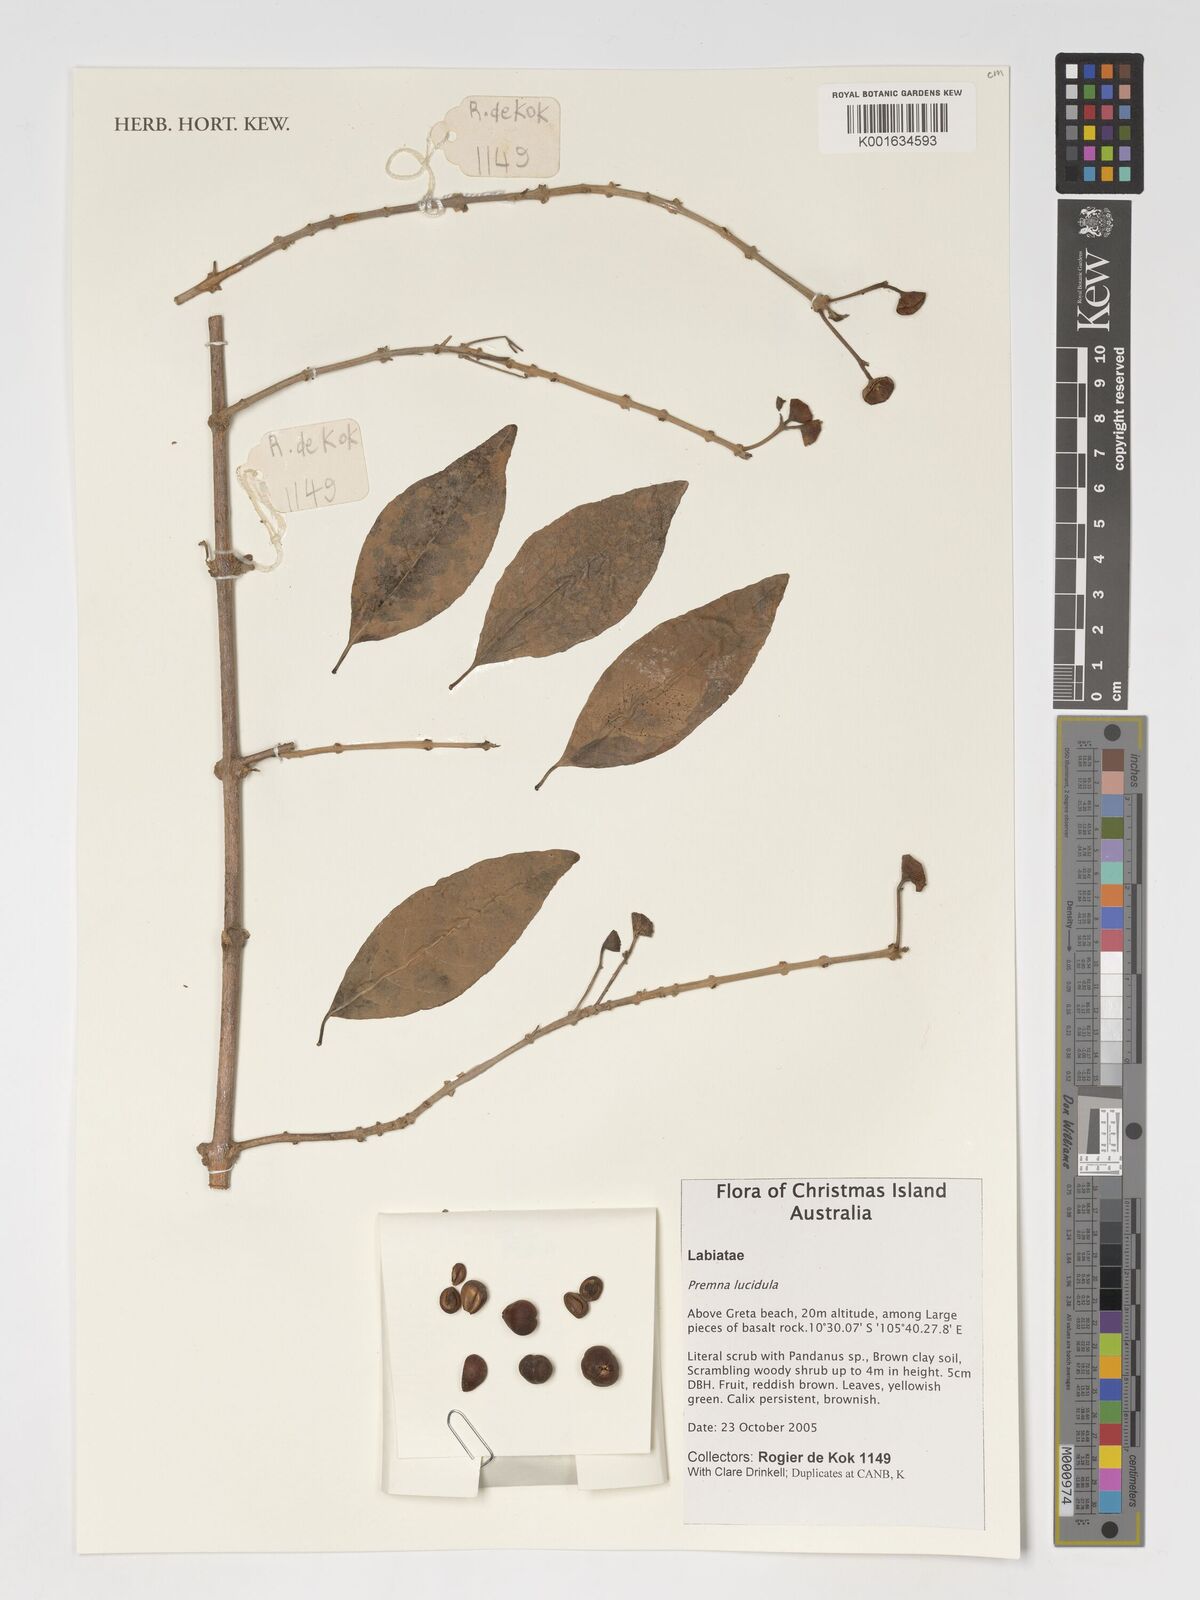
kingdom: Plantae
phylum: Tracheophyta
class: Magnoliopsida
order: Lamiales
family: Lamiaceae
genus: Premna
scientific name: Premna serratifolia
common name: Bastard guelder
